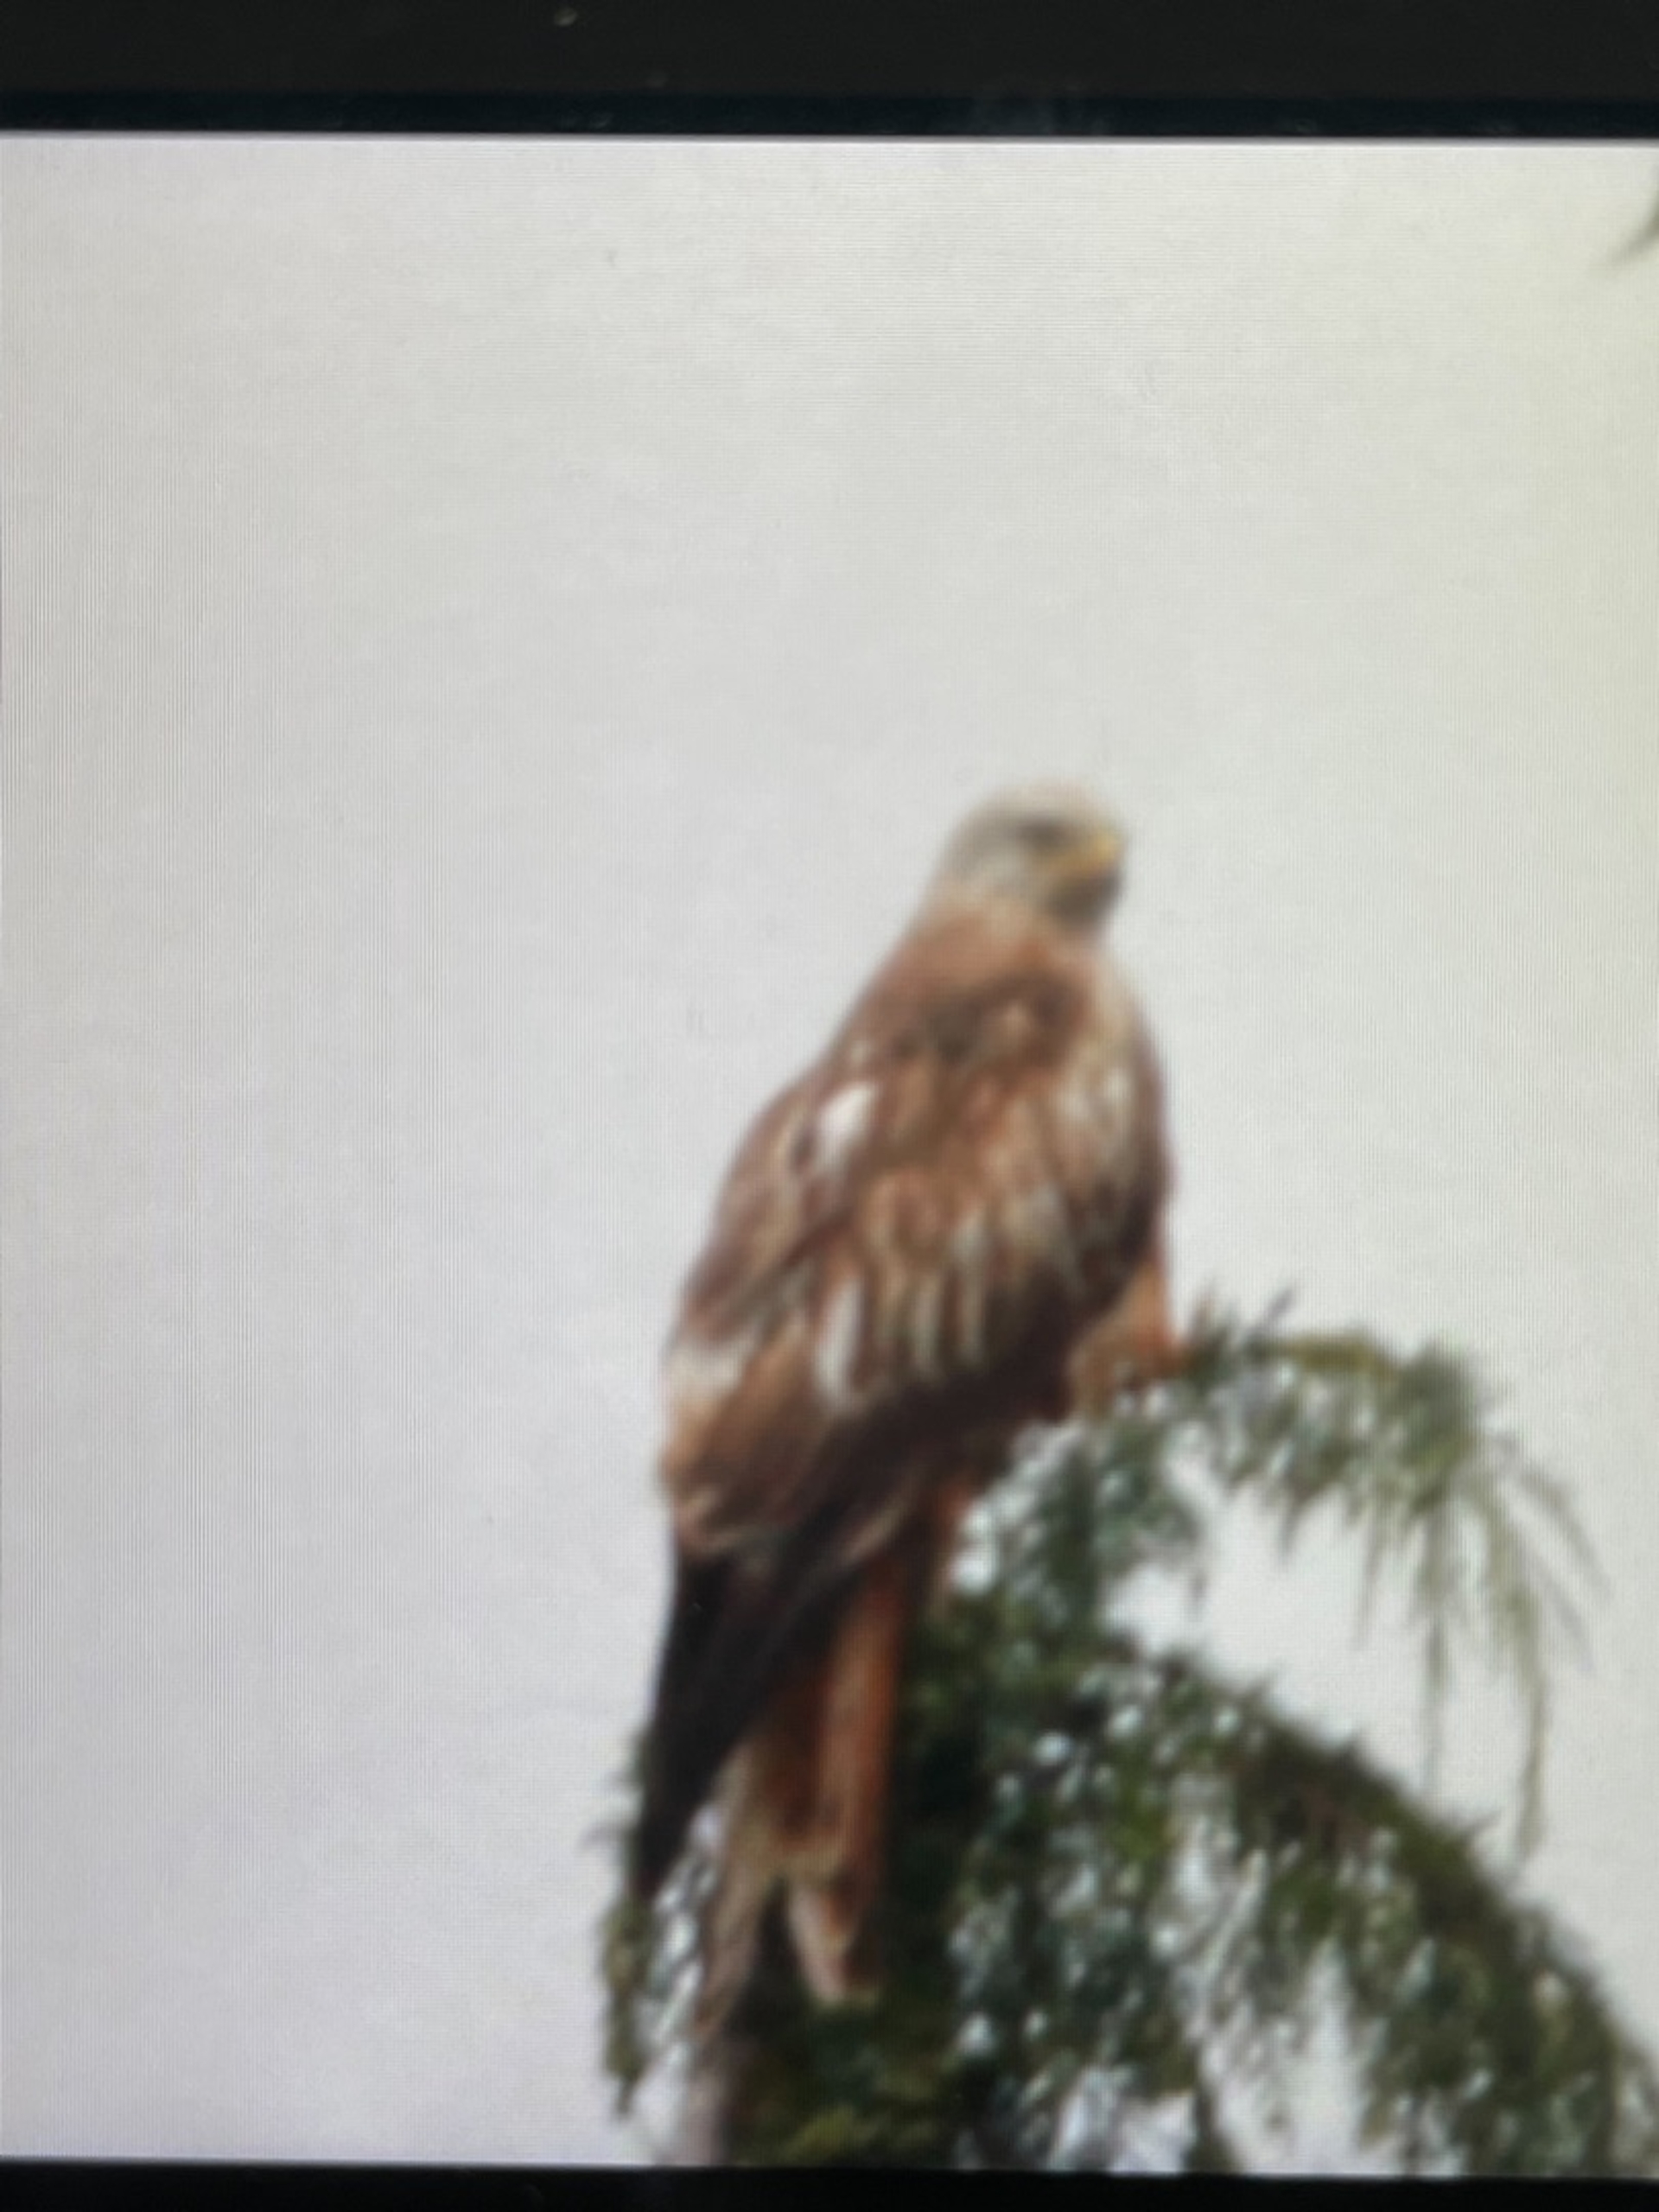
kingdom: Animalia
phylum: Chordata
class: Aves
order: Accipitriformes
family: Accipitridae
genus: Milvus
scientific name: Milvus milvus
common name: Rød glente
